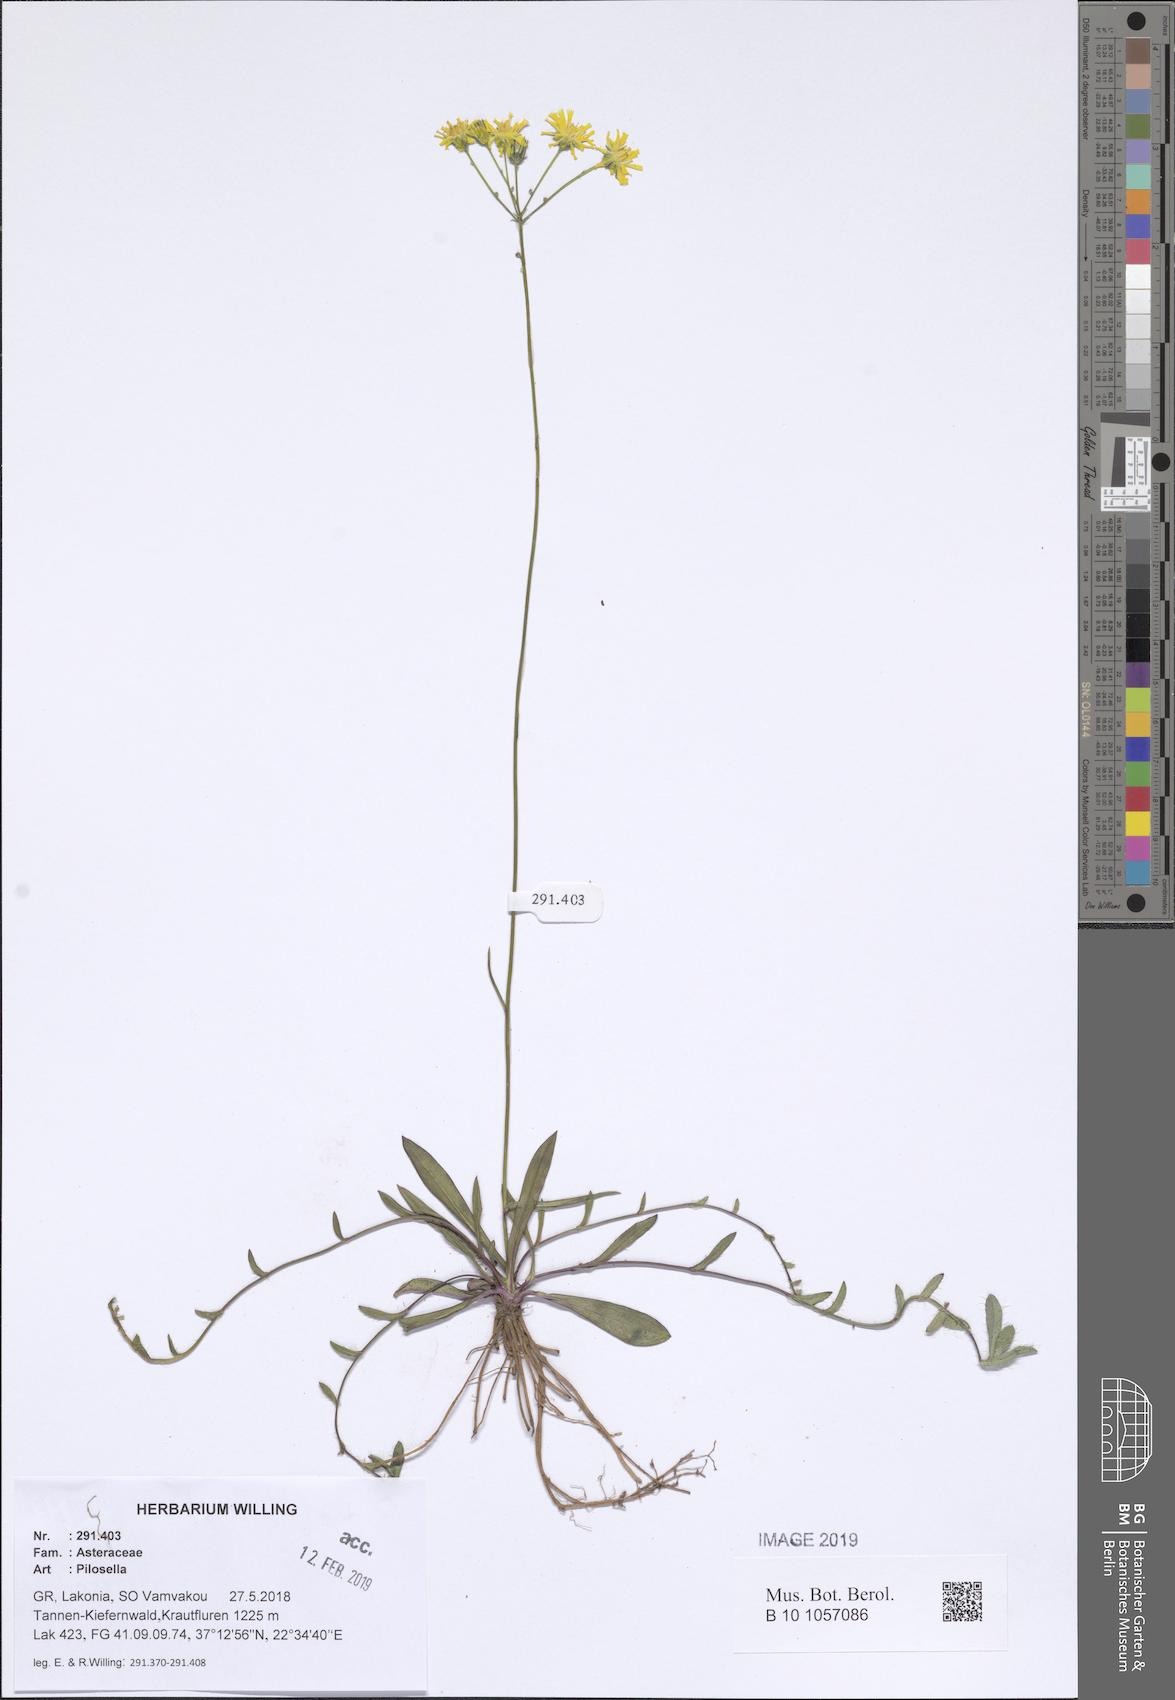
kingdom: Plantae
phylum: Tracheophyta
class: Magnoliopsida
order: Asterales
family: Asteraceae
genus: Pilosella
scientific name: Pilosella
